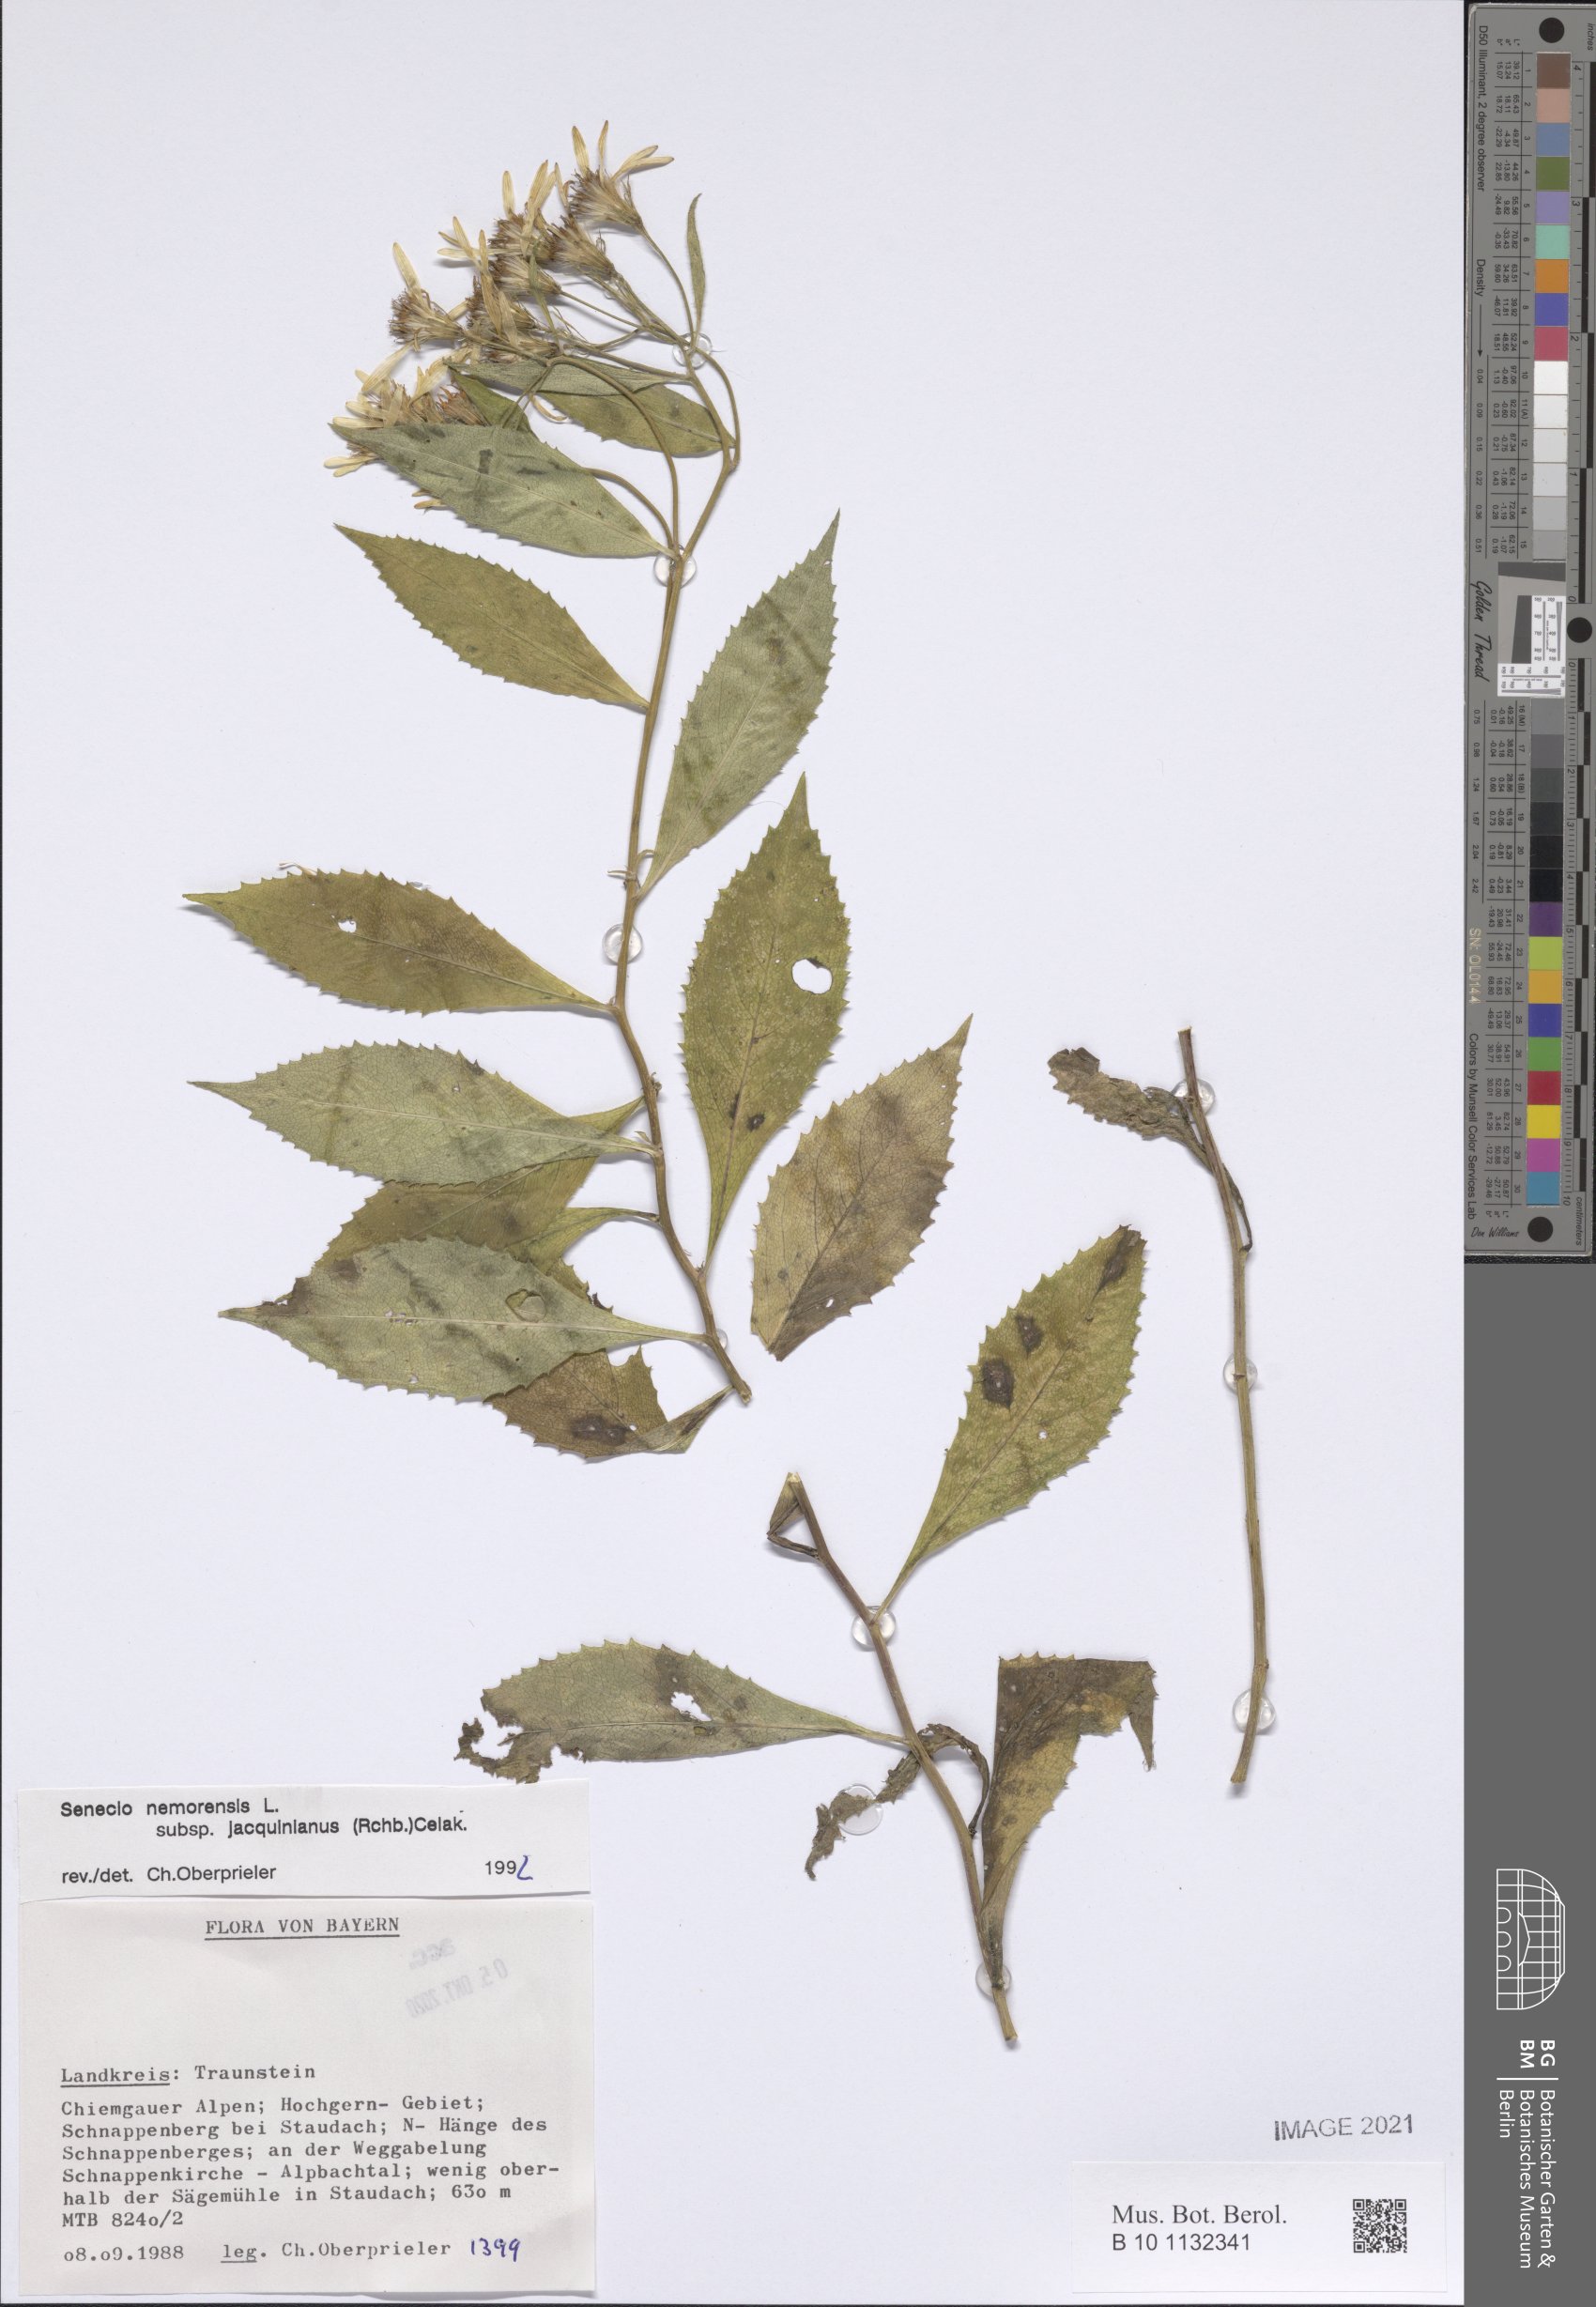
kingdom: Plantae
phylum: Tracheophyta
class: Magnoliopsida
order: Asterales
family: Asteraceae
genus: Senecio
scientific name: Senecio germanicus
